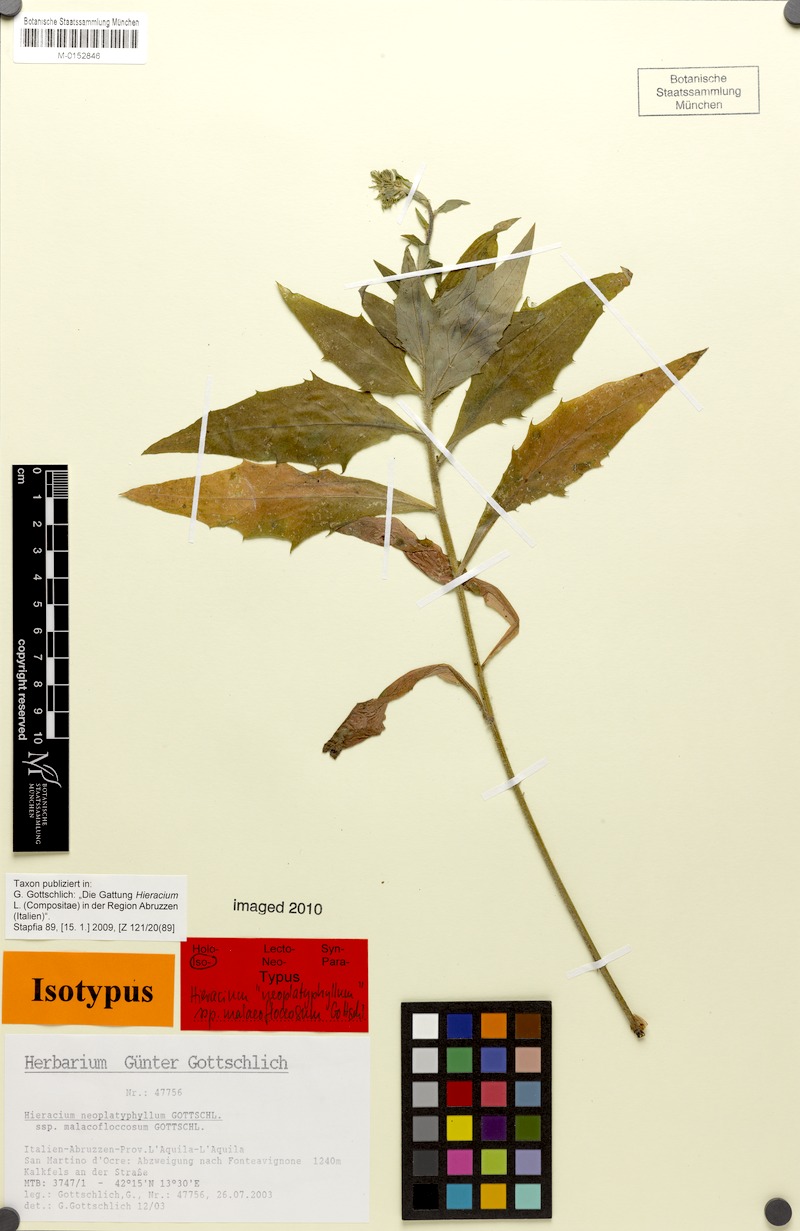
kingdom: Plantae
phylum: Tracheophyta
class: Magnoliopsida
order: Asterales
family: Asteraceae
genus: Hieracium
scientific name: Hieracium neoplatyphyllum
